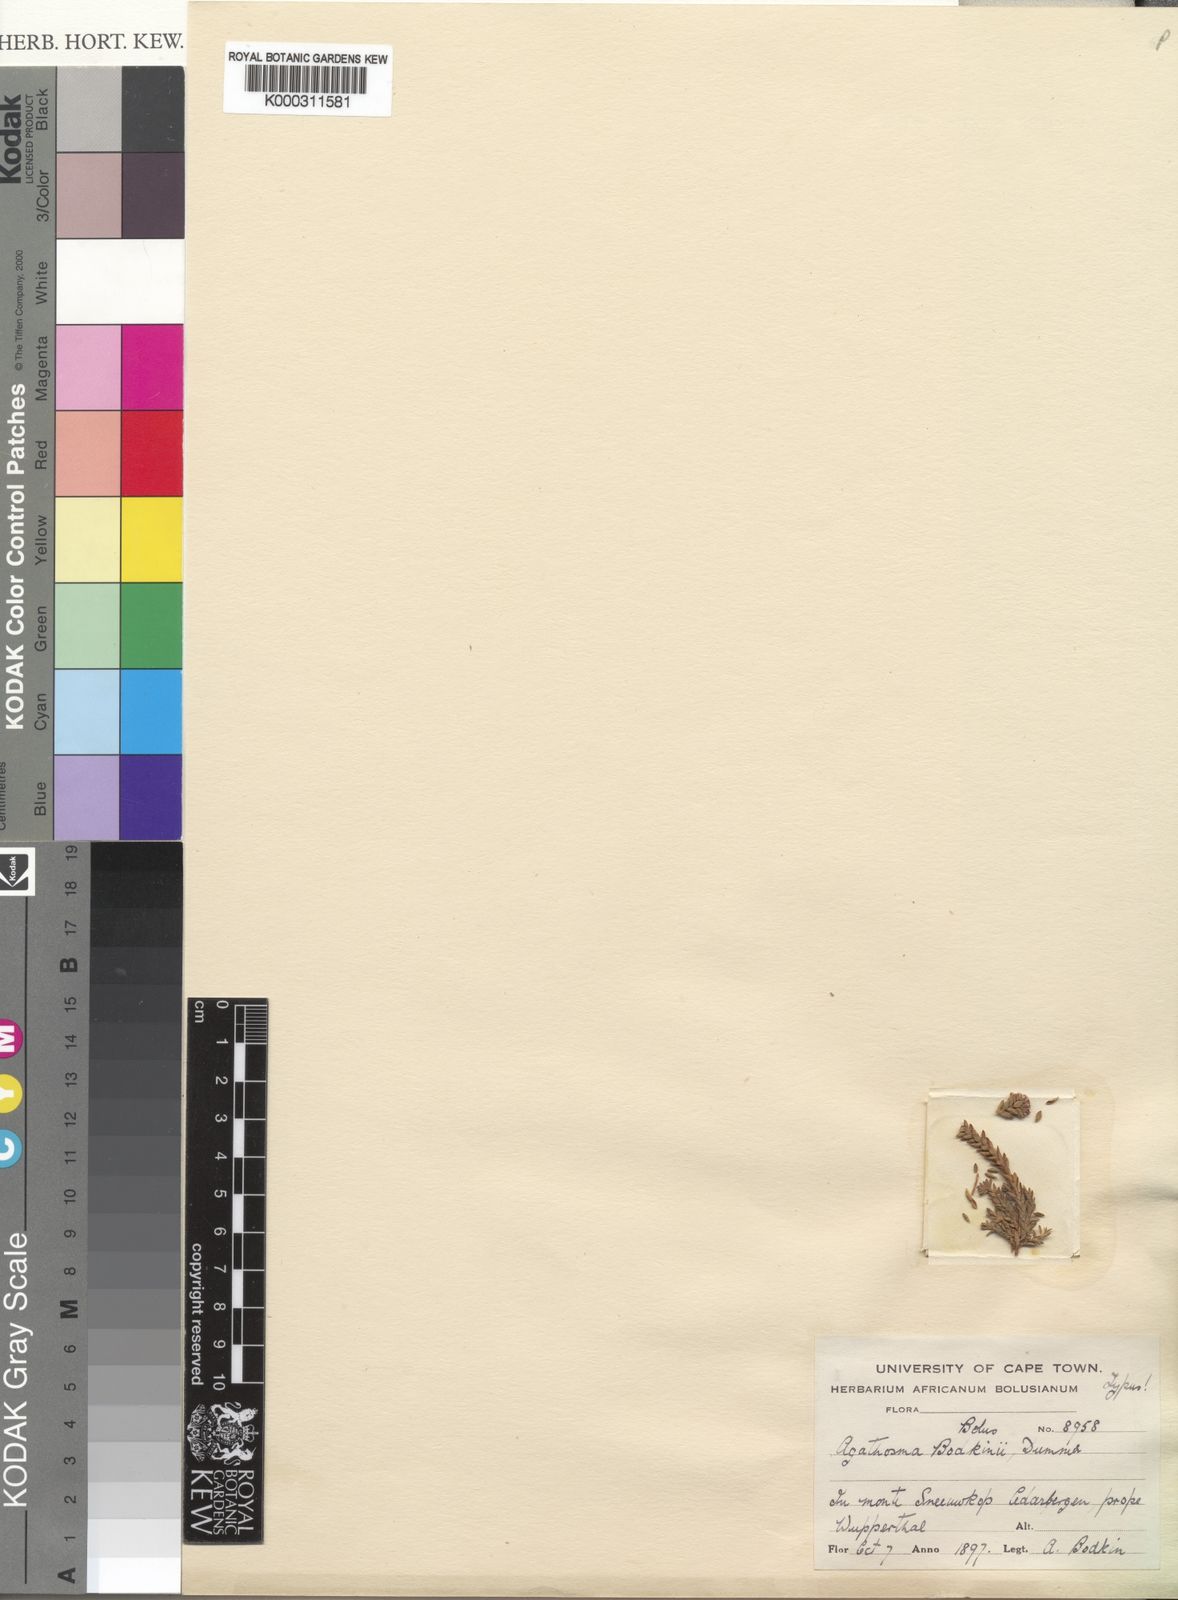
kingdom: Plantae
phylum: Tracheophyta
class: Magnoliopsida
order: Sapindales
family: Rutaceae
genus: Agathosma
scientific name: Agathosma bodkinii
